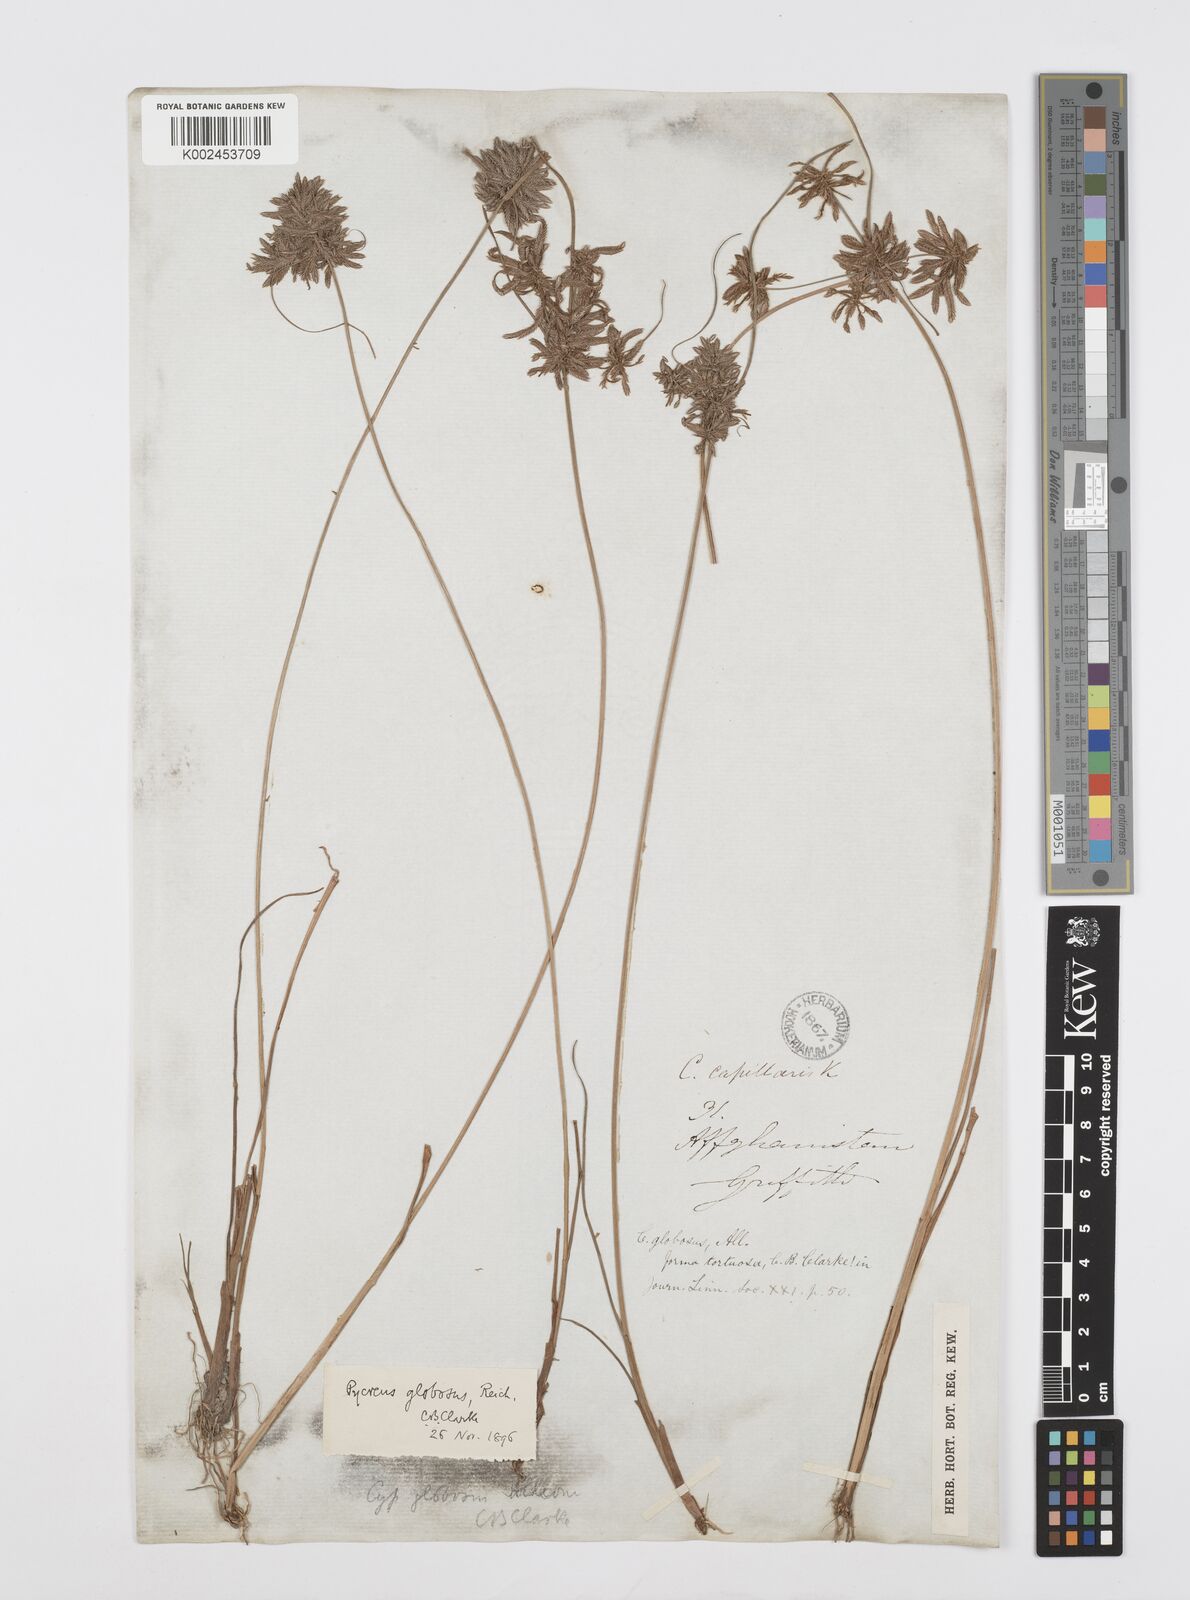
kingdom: Plantae
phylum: Tracheophyta
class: Liliopsida
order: Poales
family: Cyperaceae
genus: Cyperus
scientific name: Cyperus flavidus
